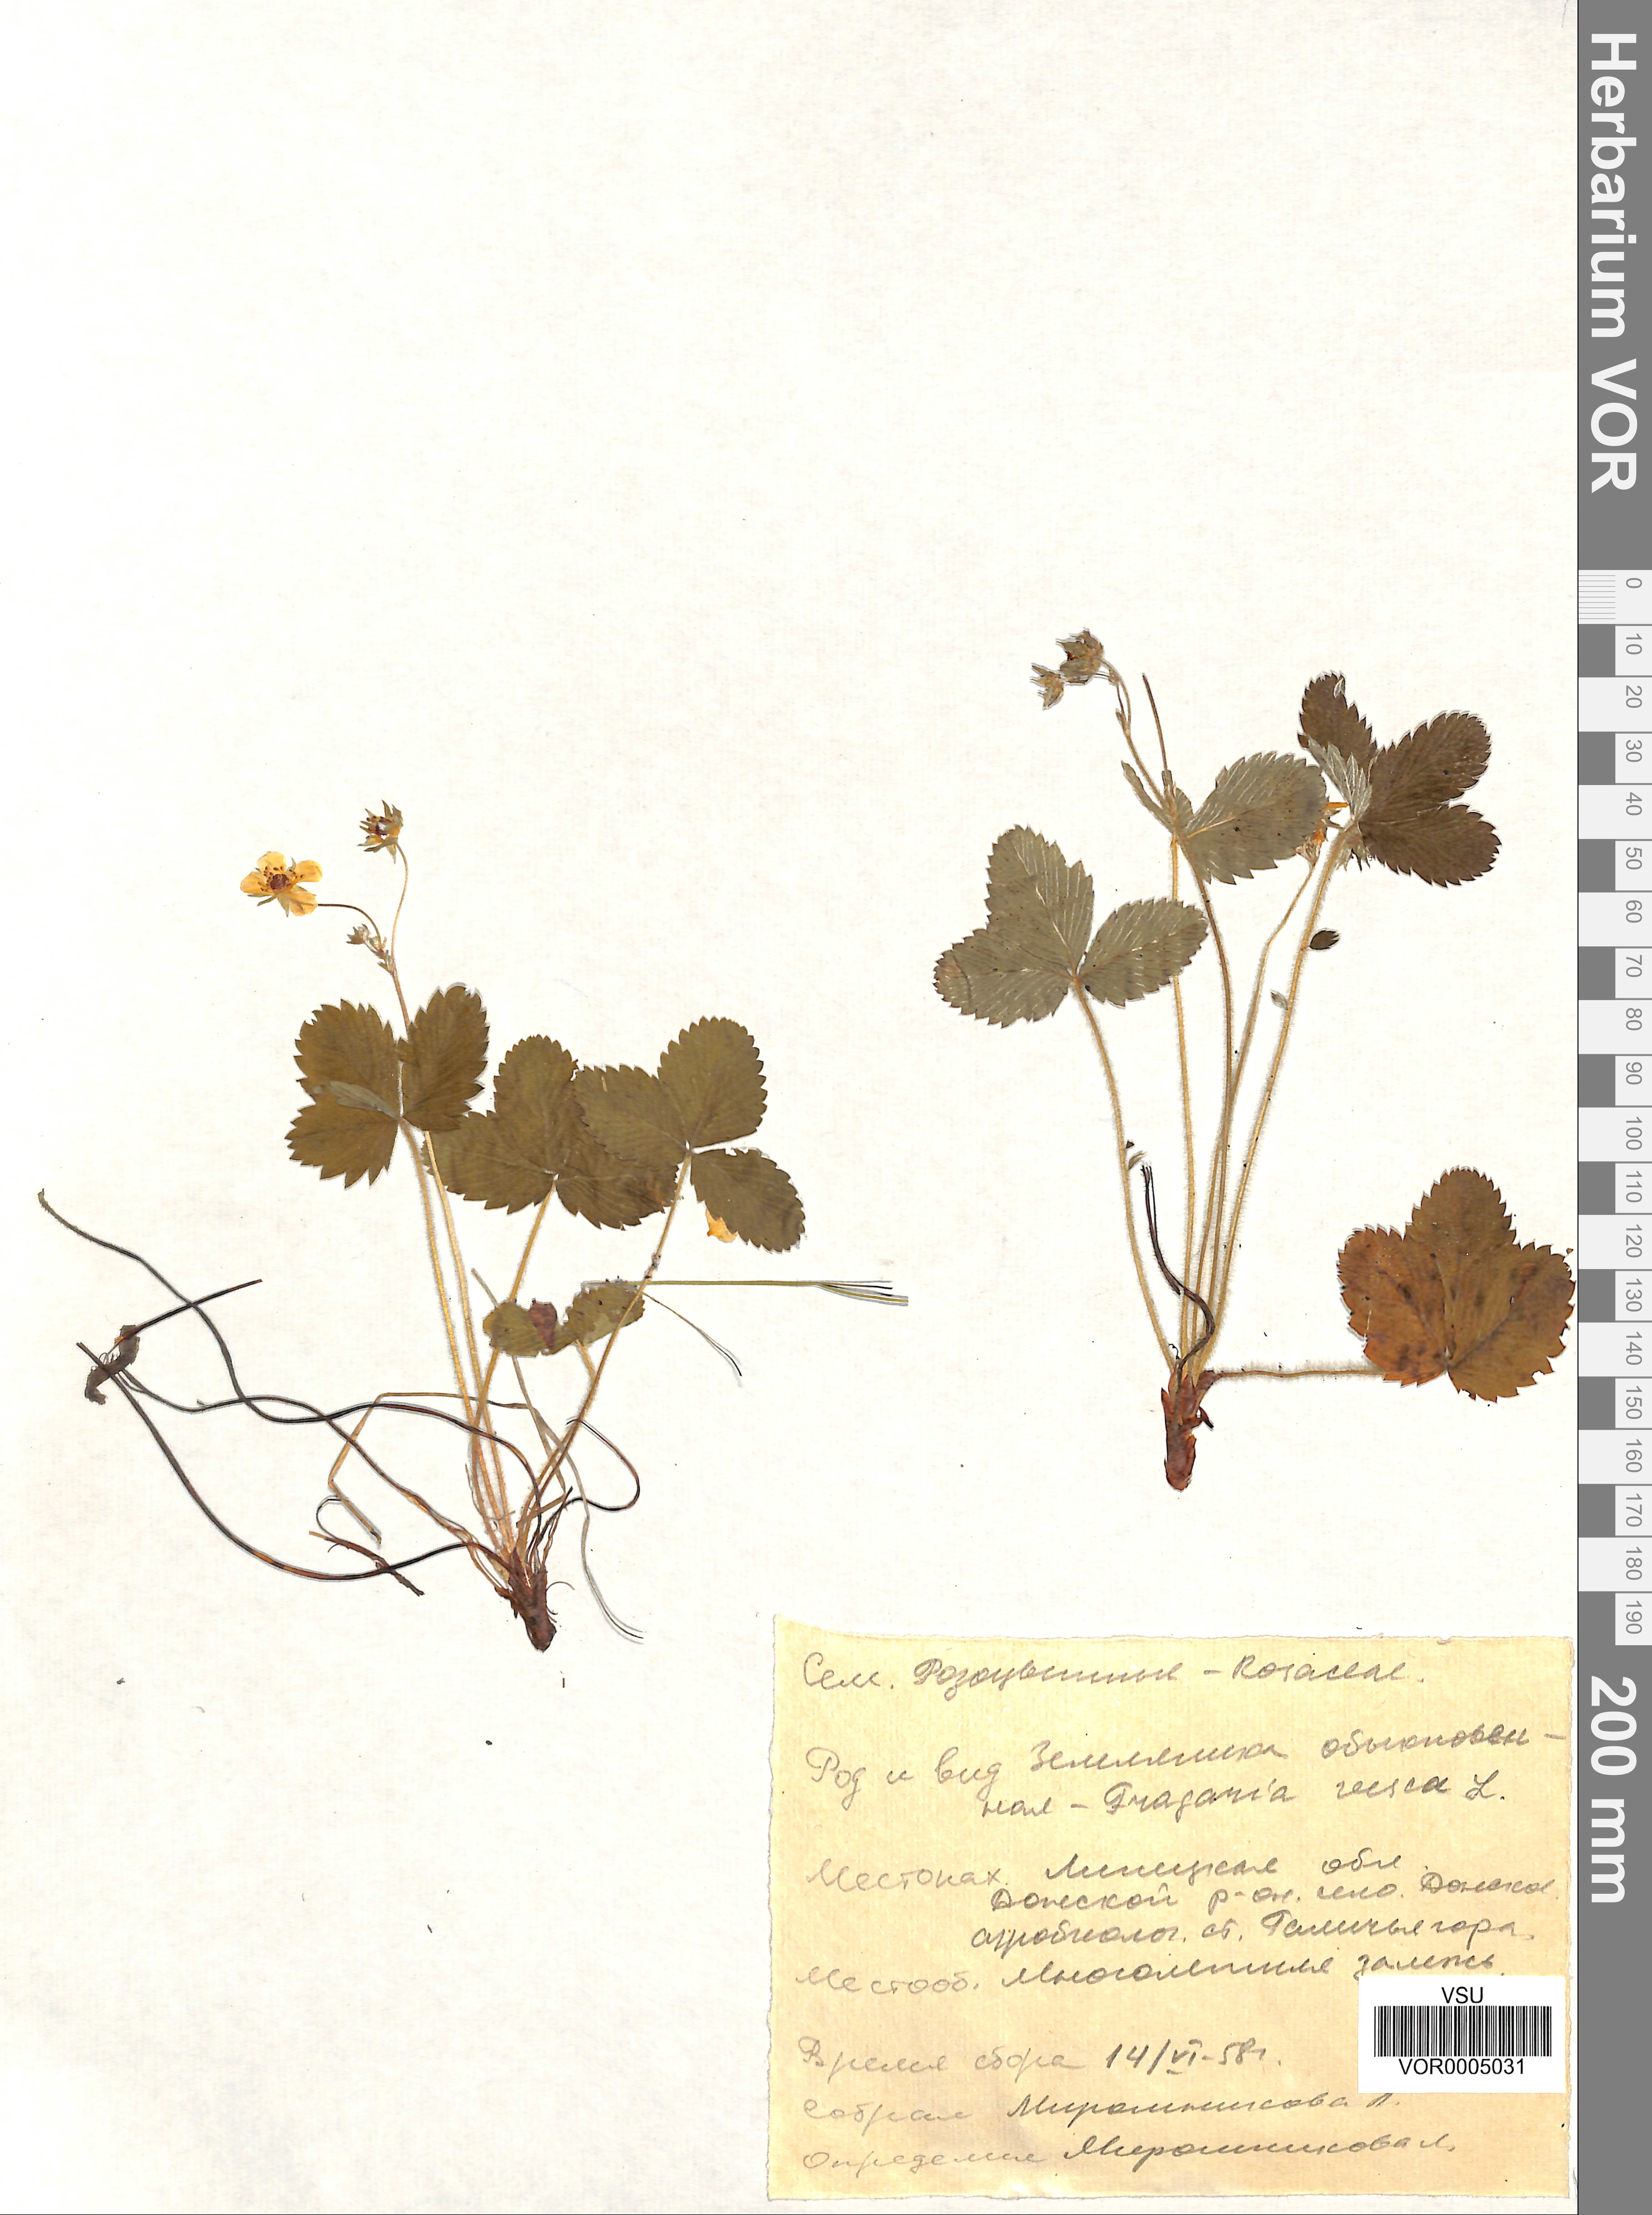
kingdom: Plantae
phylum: Tracheophyta
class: Magnoliopsida
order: Rosales
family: Rosaceae
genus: Fragaria
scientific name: Fragaria vesca
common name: Wild strawberry
